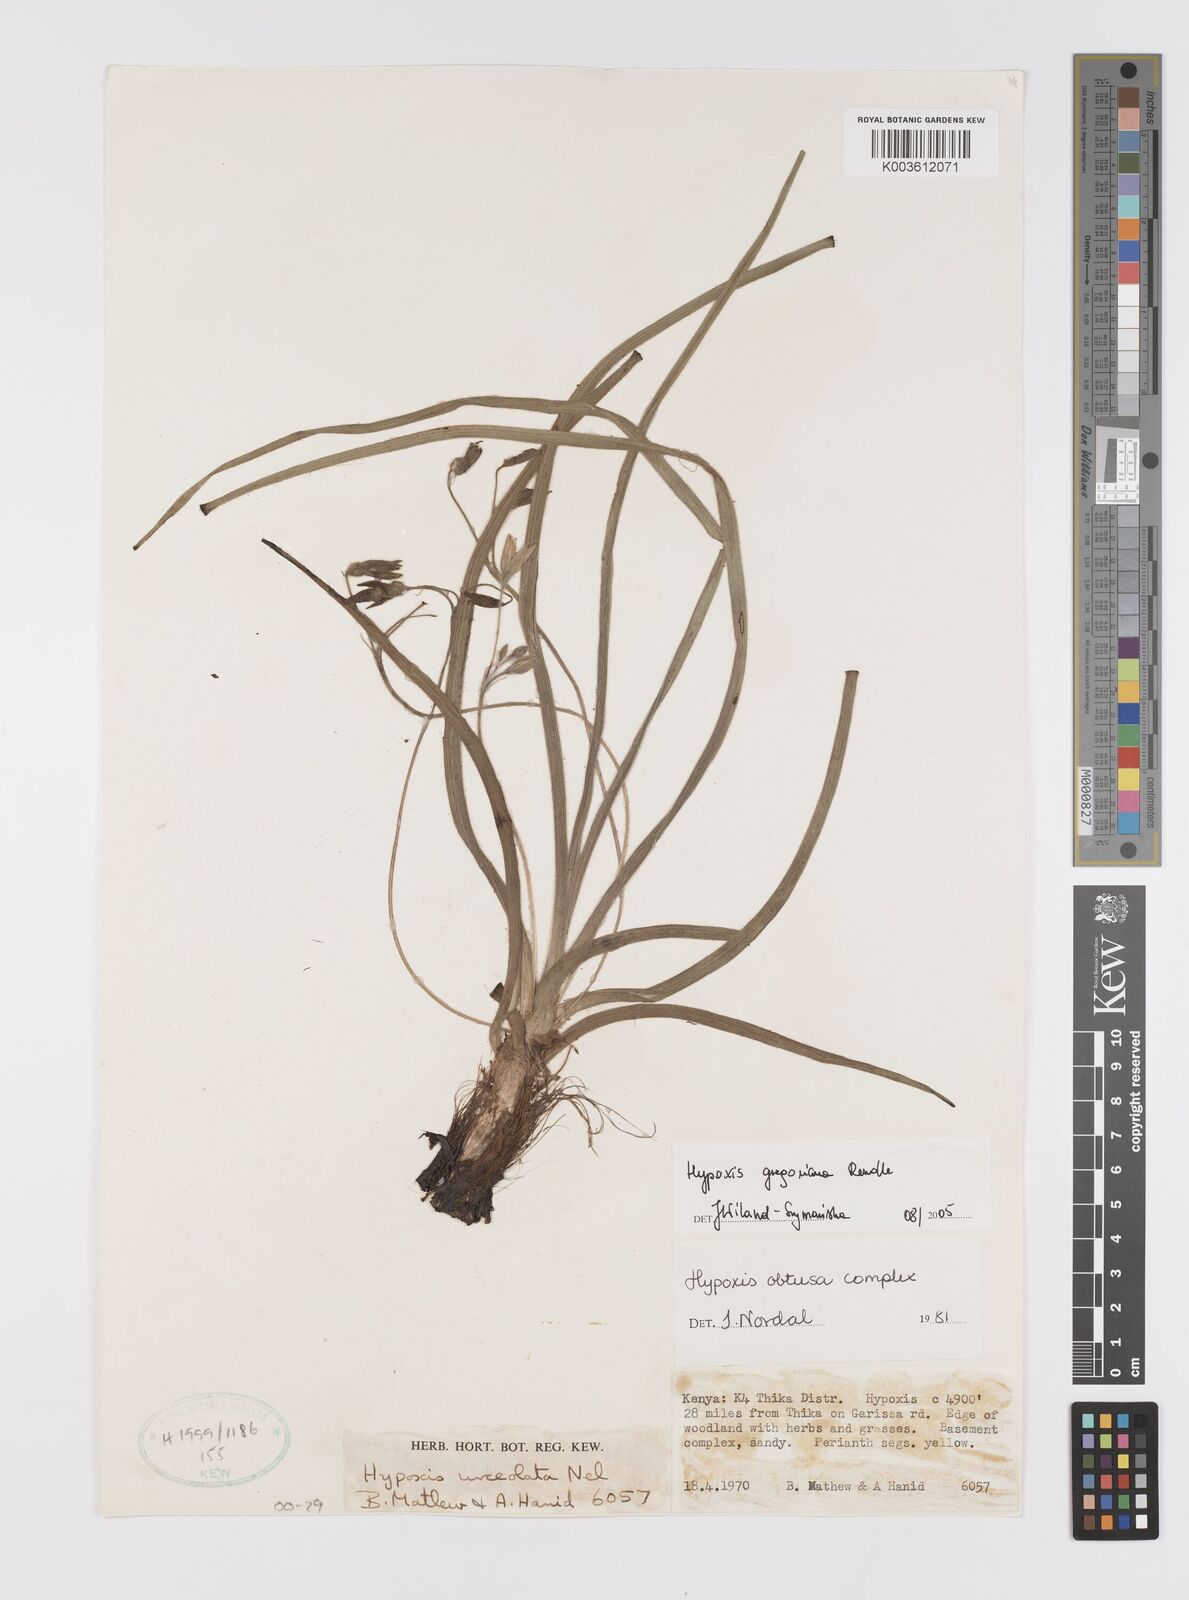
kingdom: Plantae
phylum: Tracheophyta
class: Liliopsida
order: Asparagales
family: Hypoxidaceae
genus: Hypoxis
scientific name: Hypoxis gregoriana
